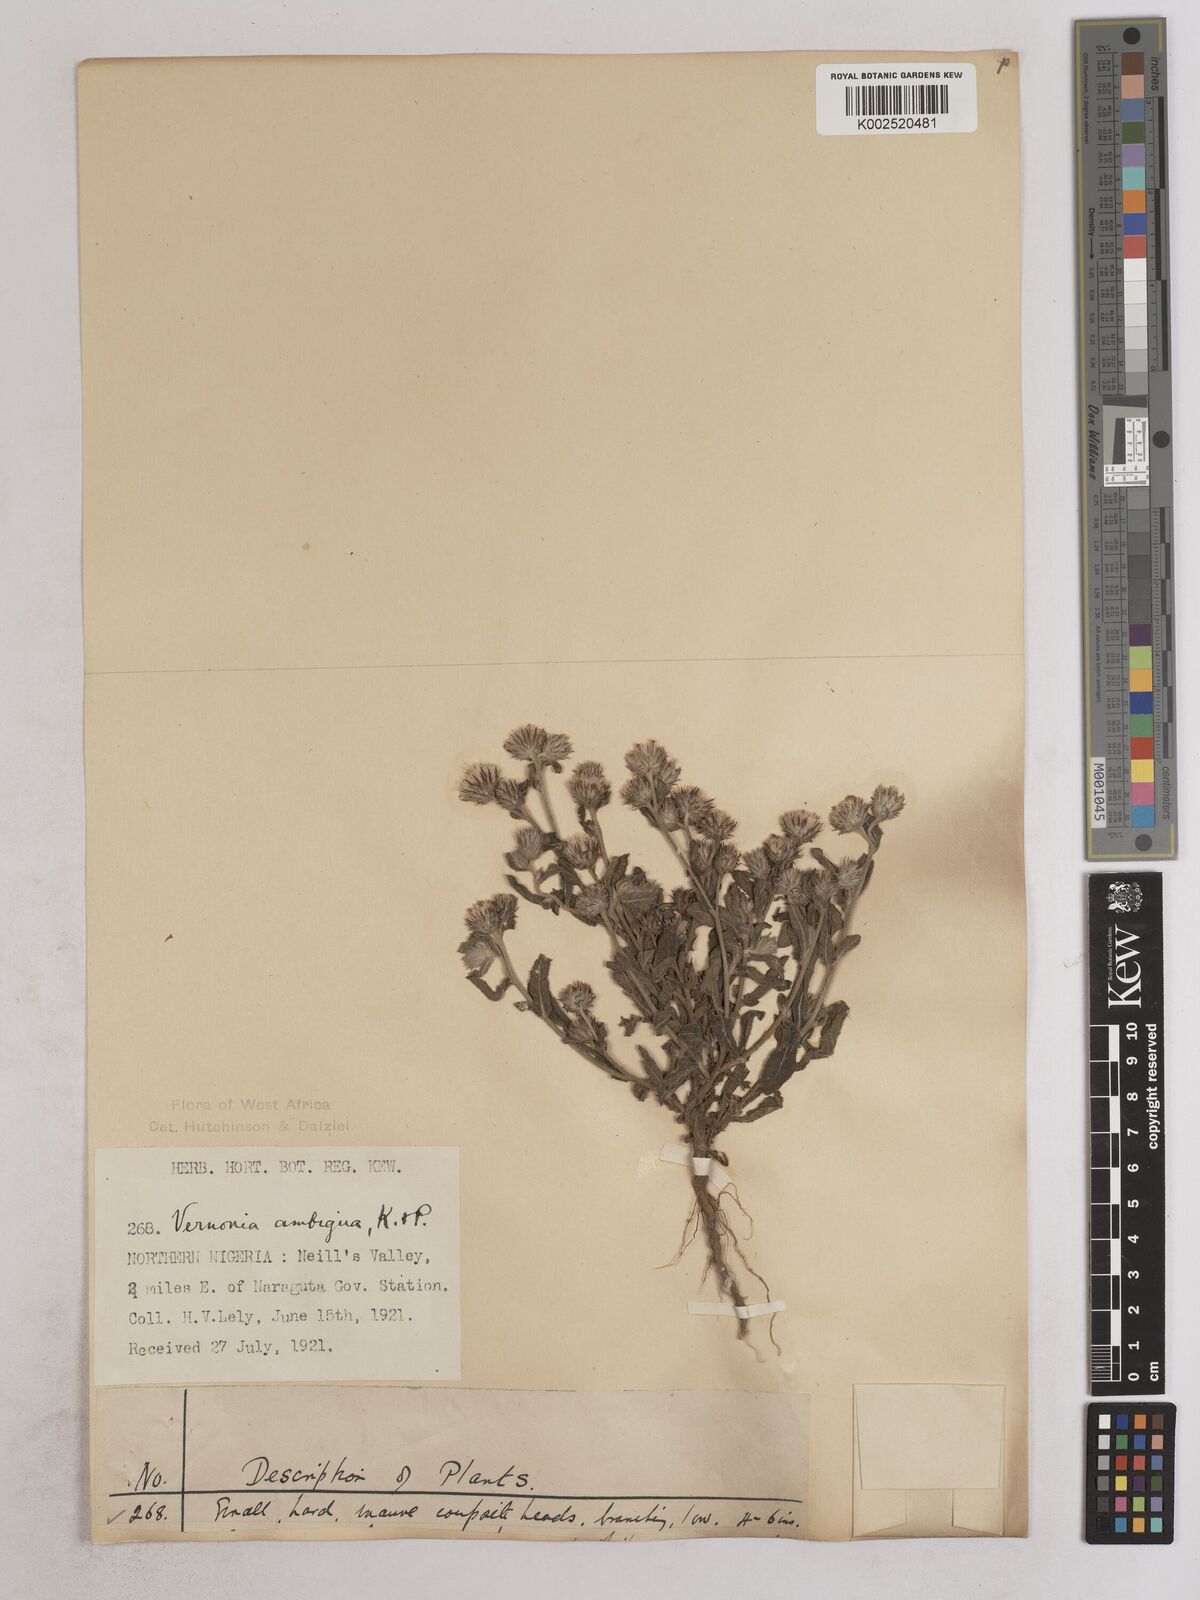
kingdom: Plantae
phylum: Tracheophyta
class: Magnoliopsida
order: Asterales
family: Asteraceae
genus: Vernoniastrum
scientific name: Vernoniastrum ambiguum
